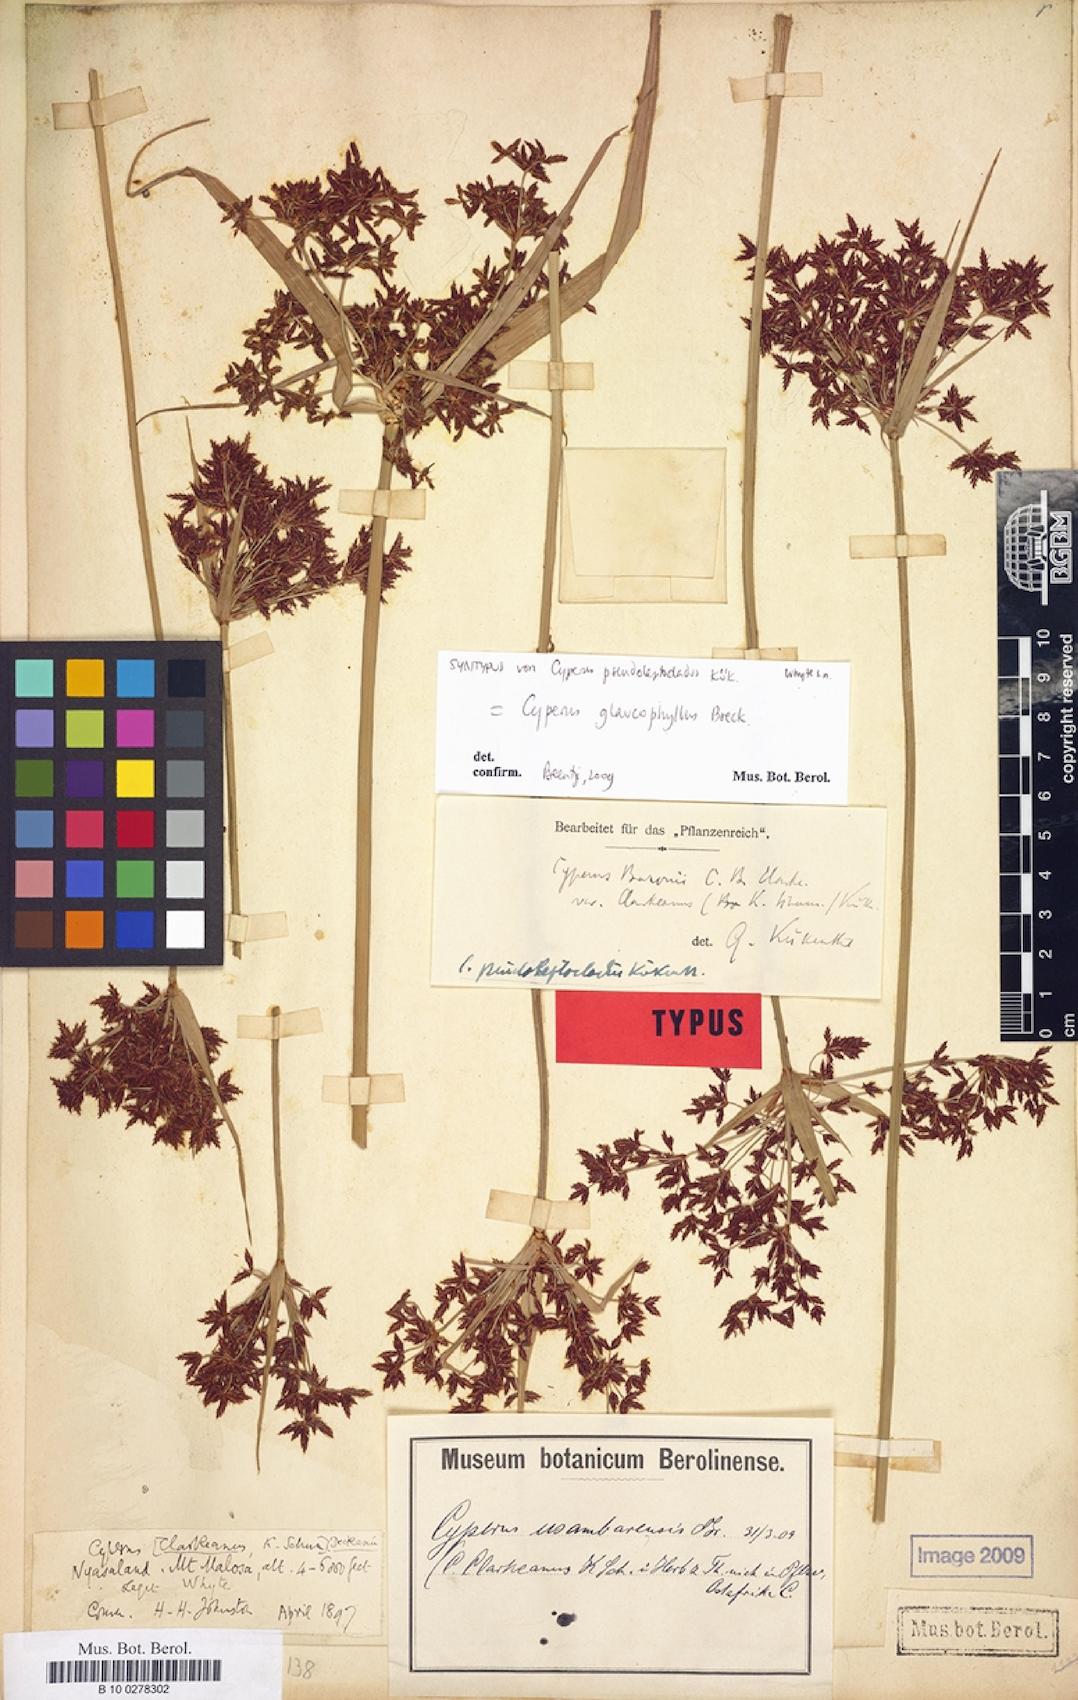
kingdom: Plantae
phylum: Tracheophyta
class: Liliopsida
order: Poales
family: Cyperaceae
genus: Cyperus
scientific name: Cyperus glaucophyllus
